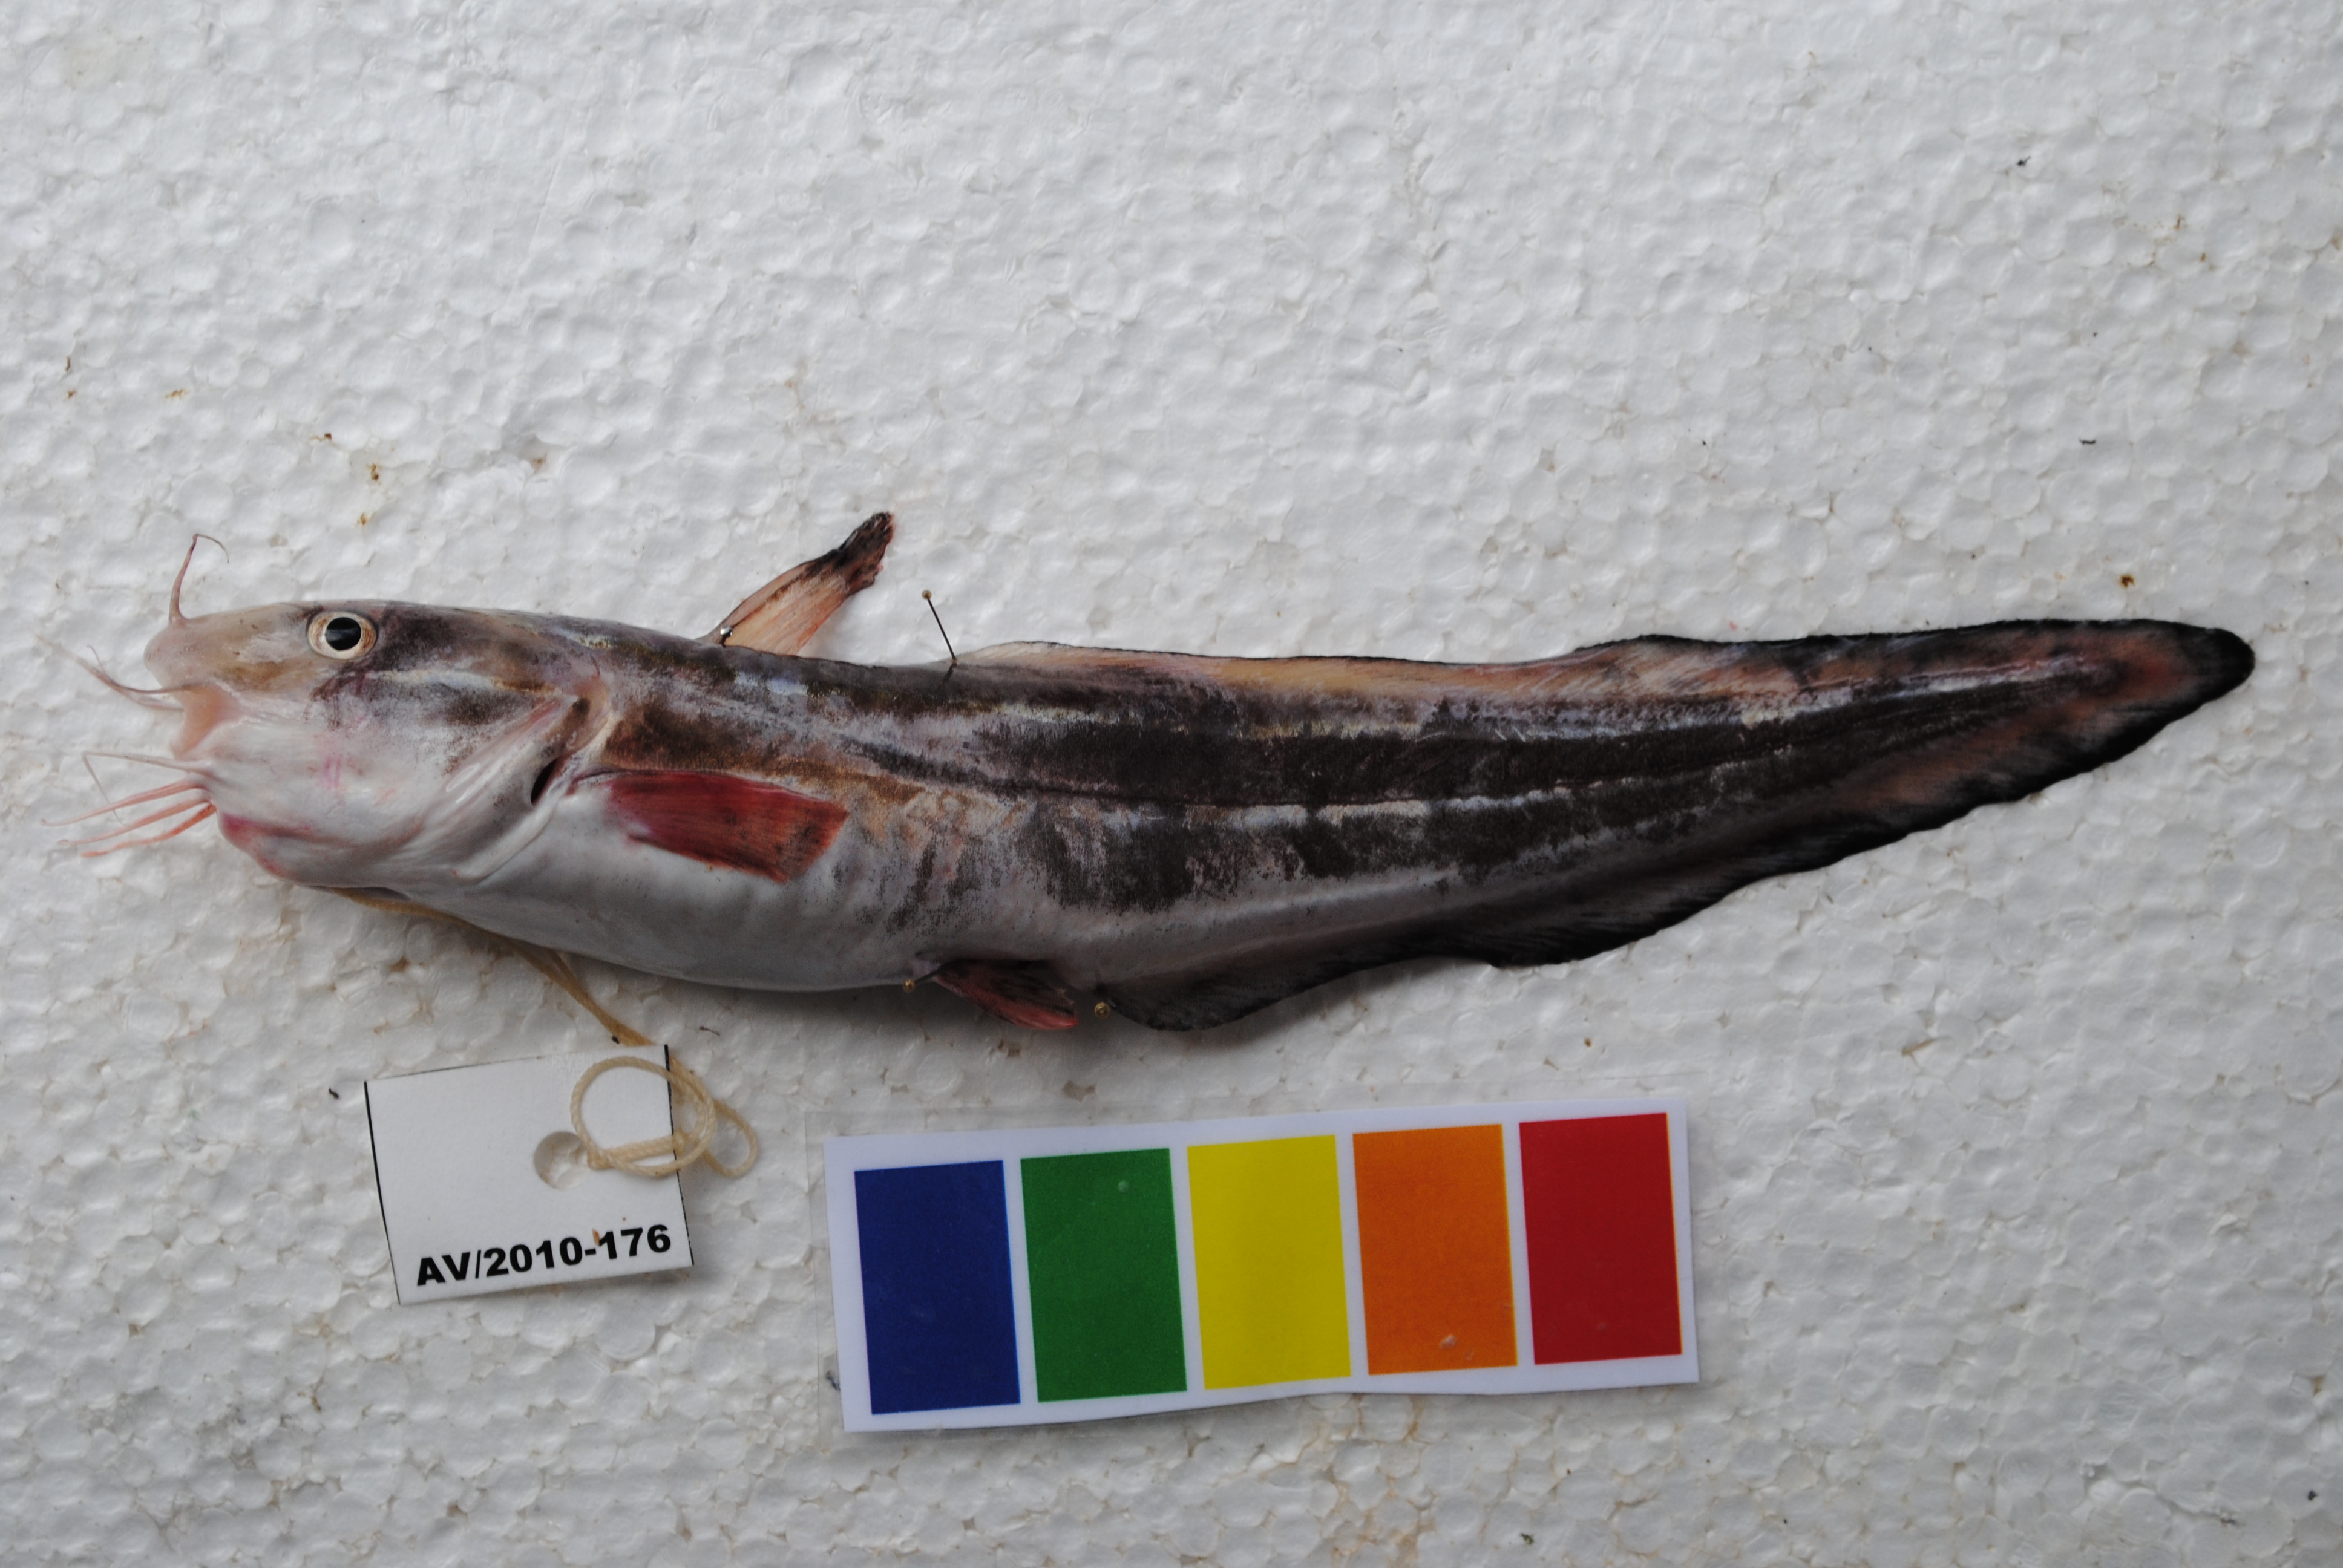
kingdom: Animalia
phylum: Chordata
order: Siluriformes
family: Plotosidae
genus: Plotosus
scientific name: Plotosus lineatus
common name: Striped eel catfish
